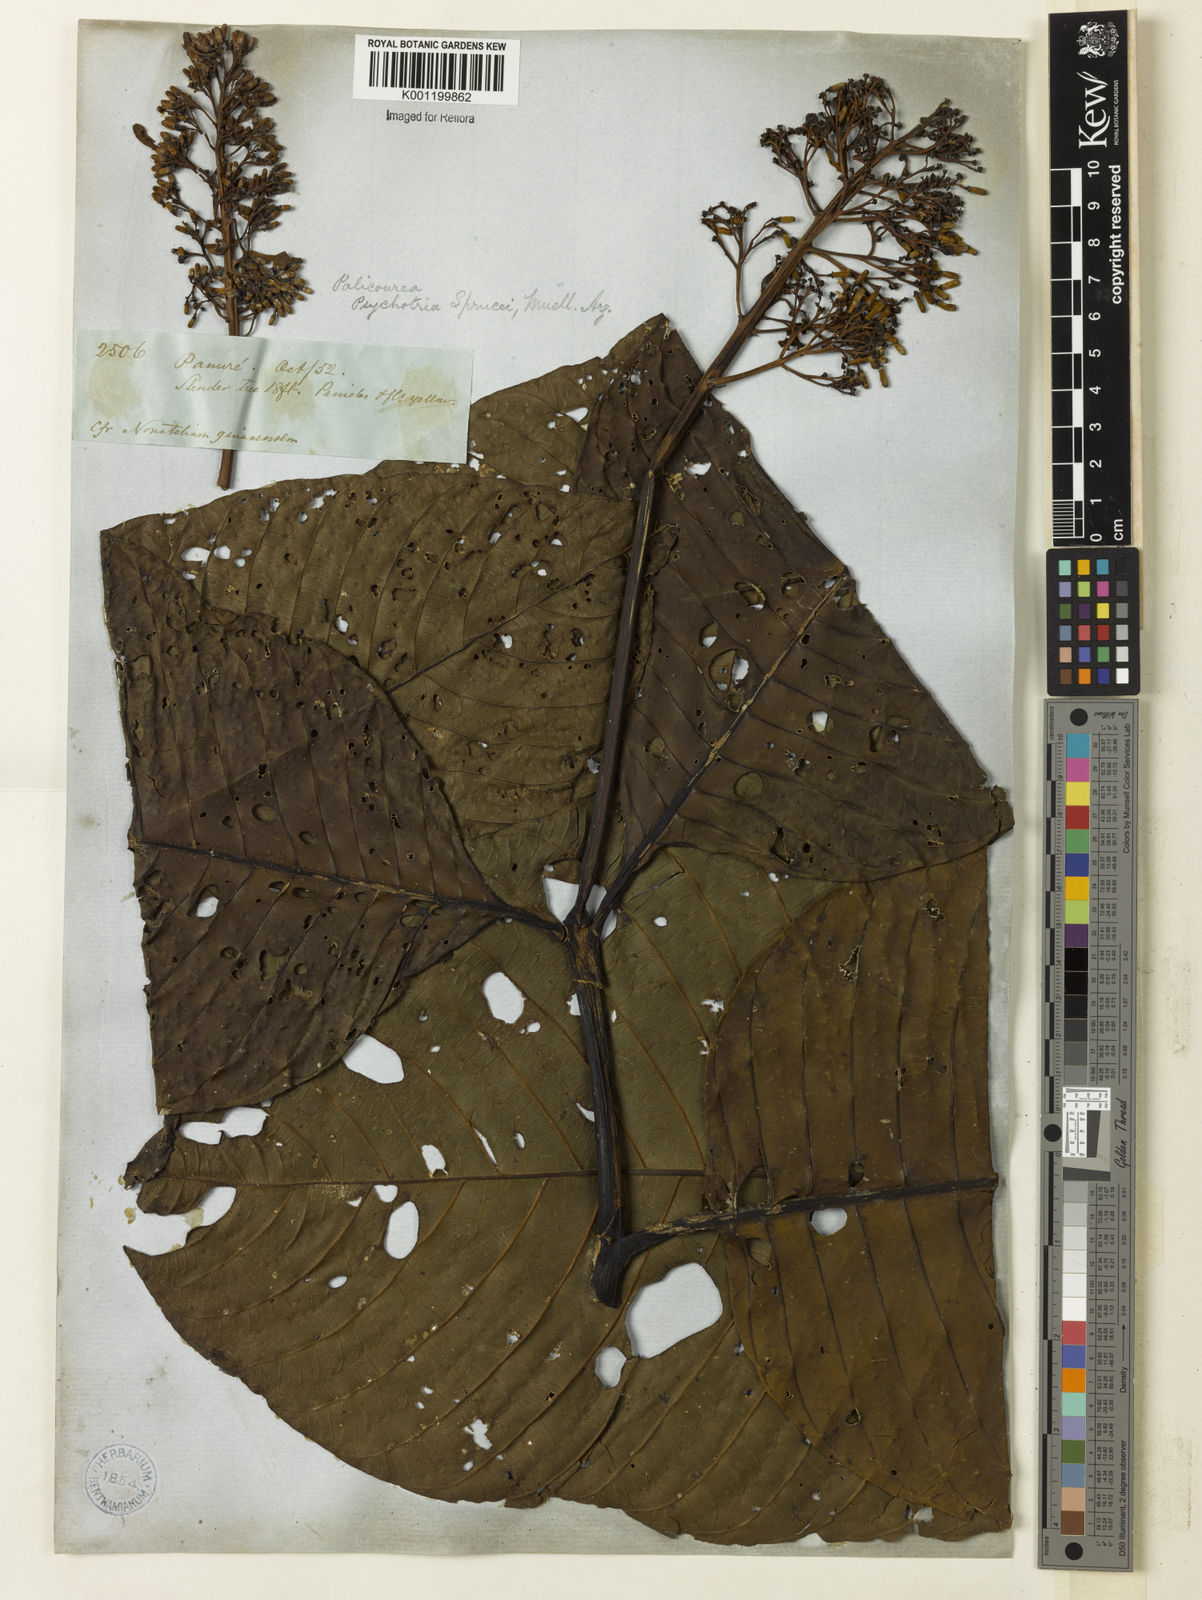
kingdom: Plantae
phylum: Tracheophyta
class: Magnoliopsida
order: Gentianales
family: Rubiaceae
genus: Palicourea
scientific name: Palicourea grandifolia
